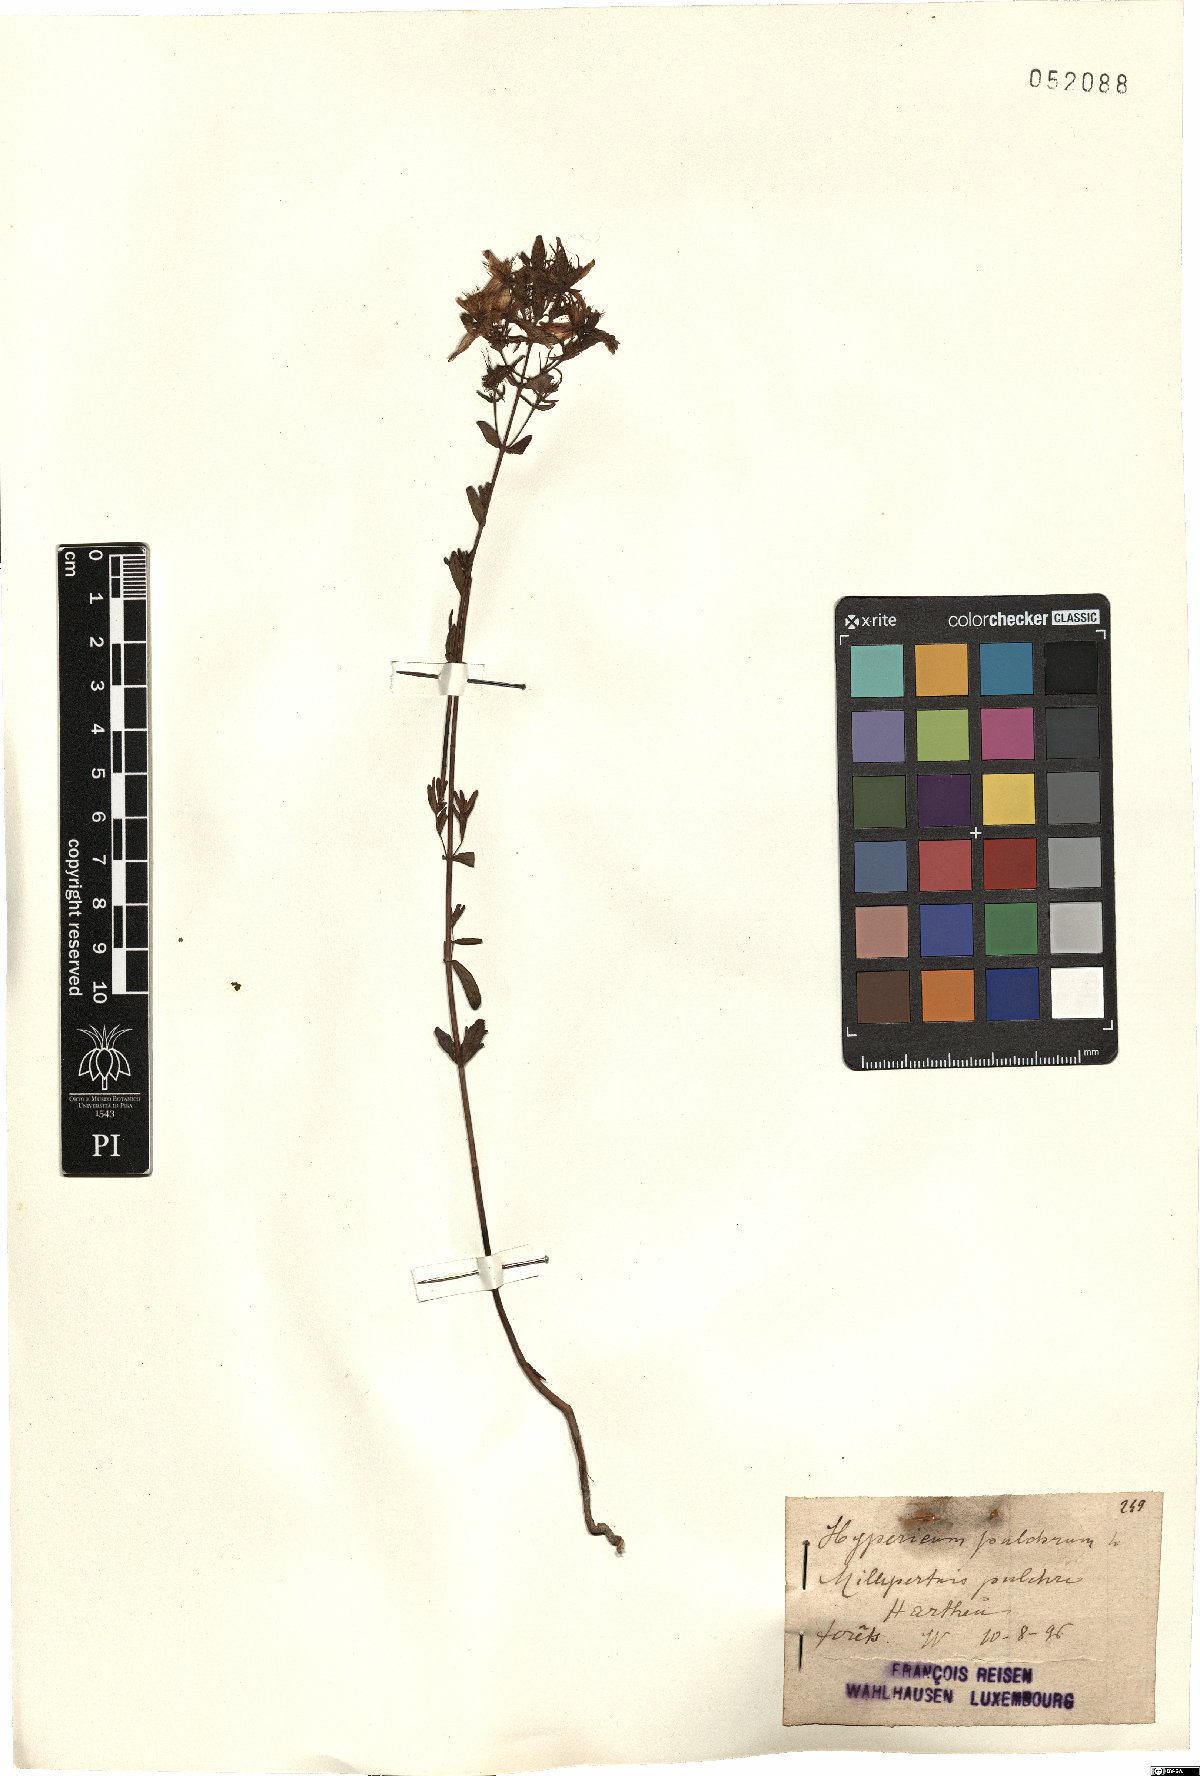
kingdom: Plantae
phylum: Tracheophyta
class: Magnoliopsida
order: Malpighiales
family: Hypericaceae
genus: Hypericum
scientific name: Hypericum pulchrum
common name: Slender st. john's-wort
